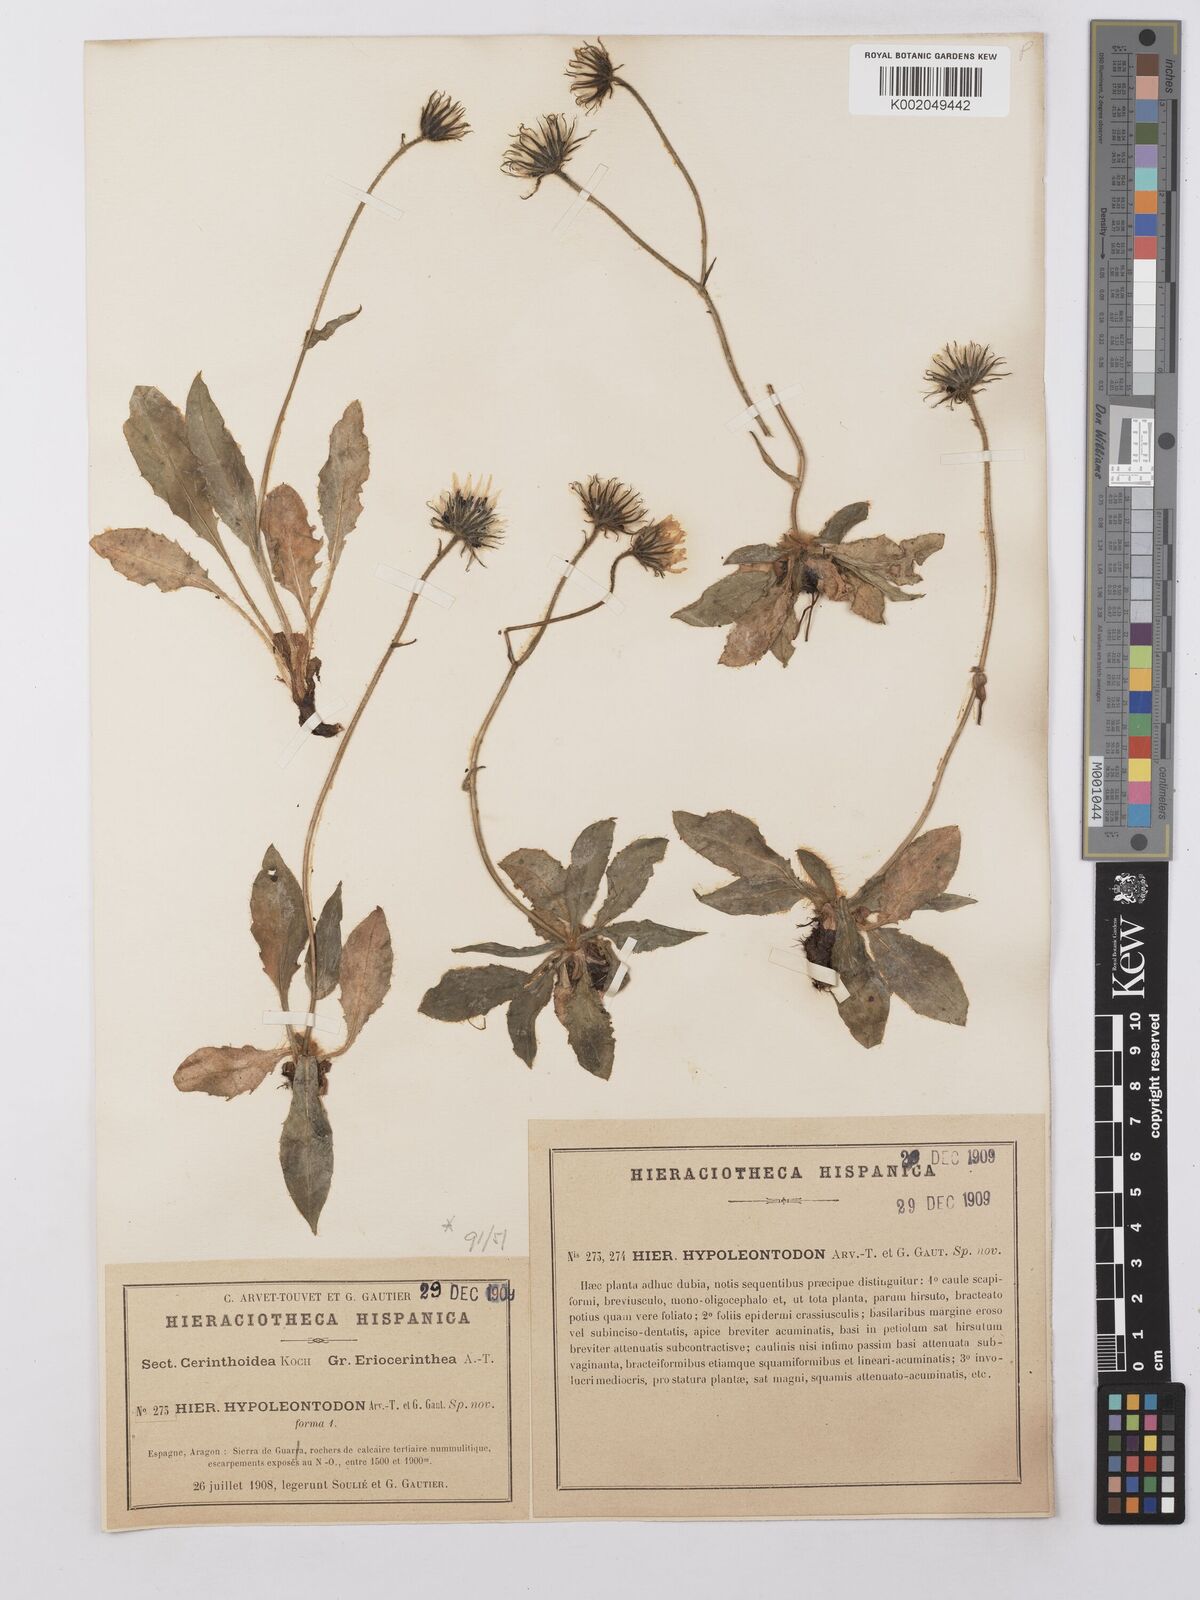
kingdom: Plantae
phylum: Tracheophyta
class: Magnoliopsida
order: Asterales
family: Asteraceae
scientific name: Asteraceae
